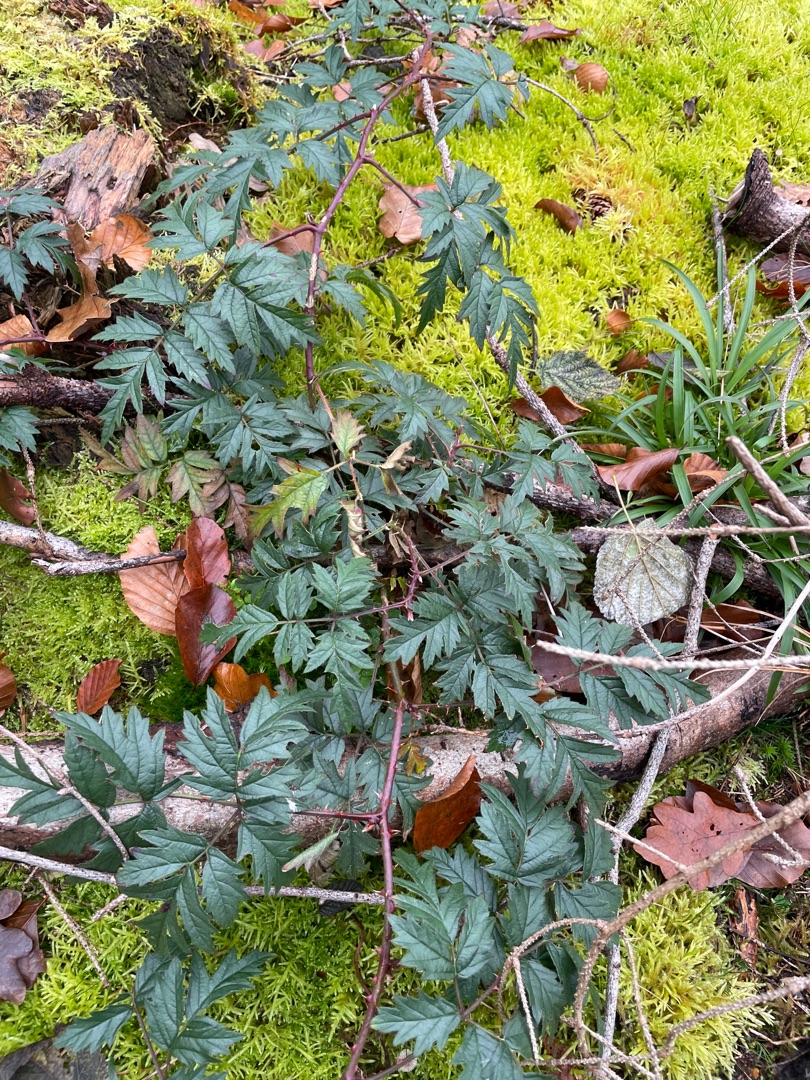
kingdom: Plantae
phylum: Tracheophyta
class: Magnoliopsida
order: Rosales
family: Rosaceae
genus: Rubus
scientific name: Rubus laciniatus
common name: Fliget brombær
